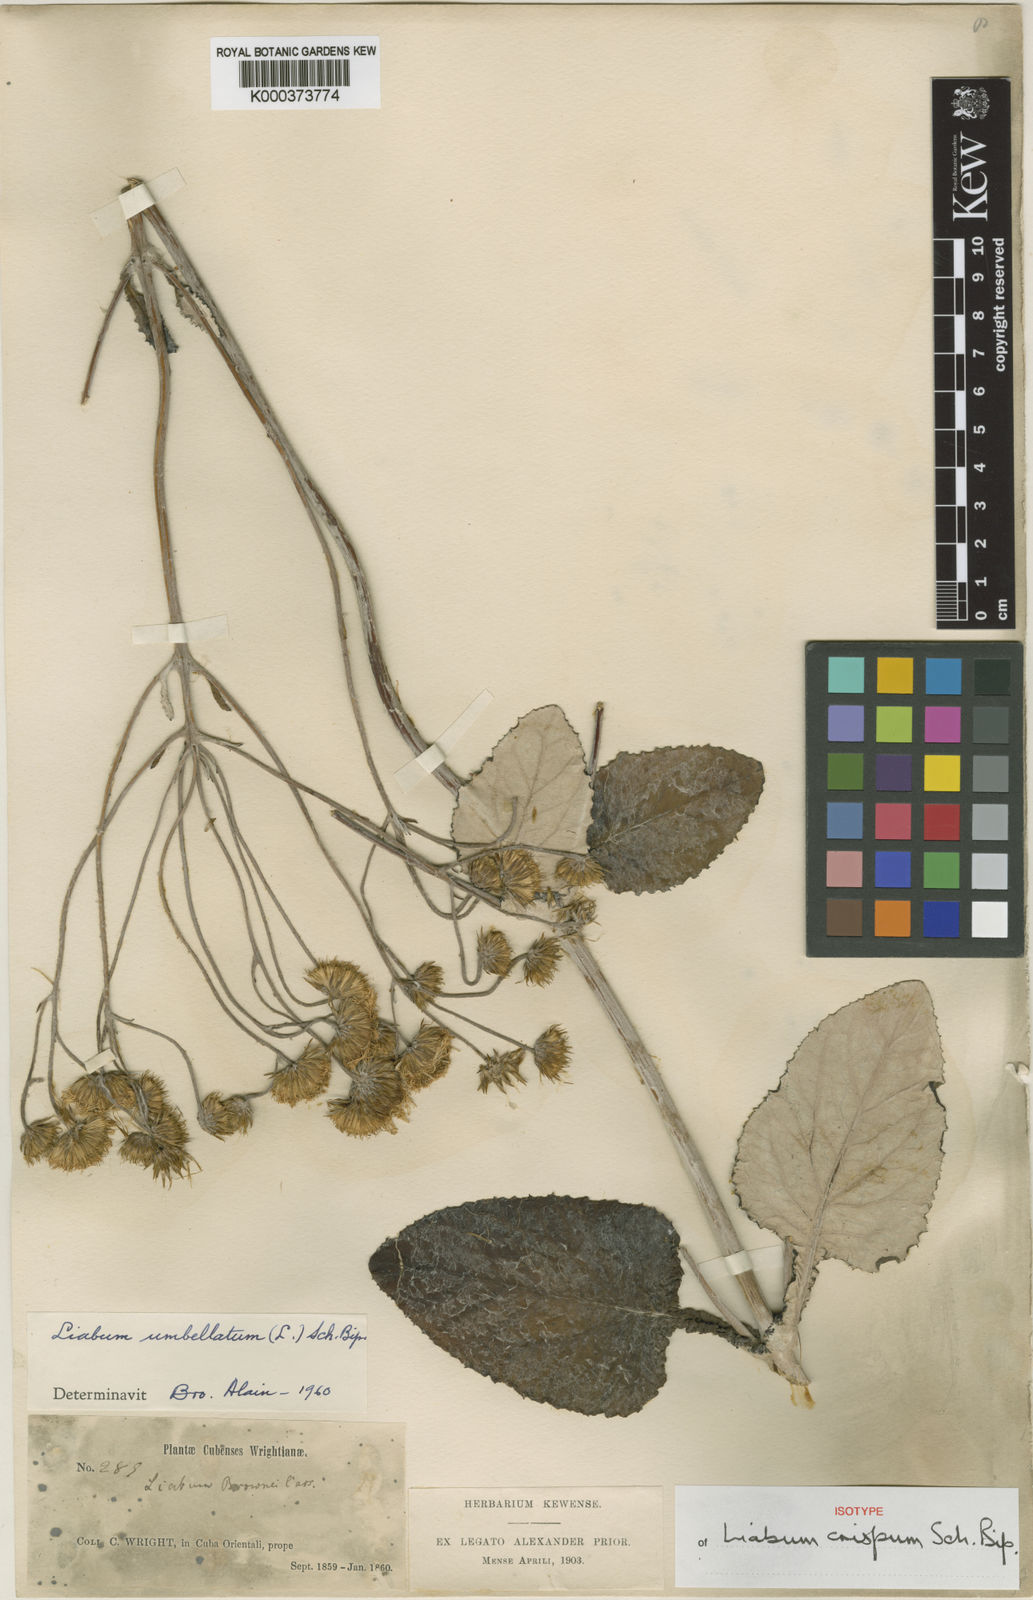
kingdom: Plantae
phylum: Tracheophyta
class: Magnoliopsida
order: Asterales
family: Asteraceae
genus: Liabum
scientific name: Liabum umbellatum
